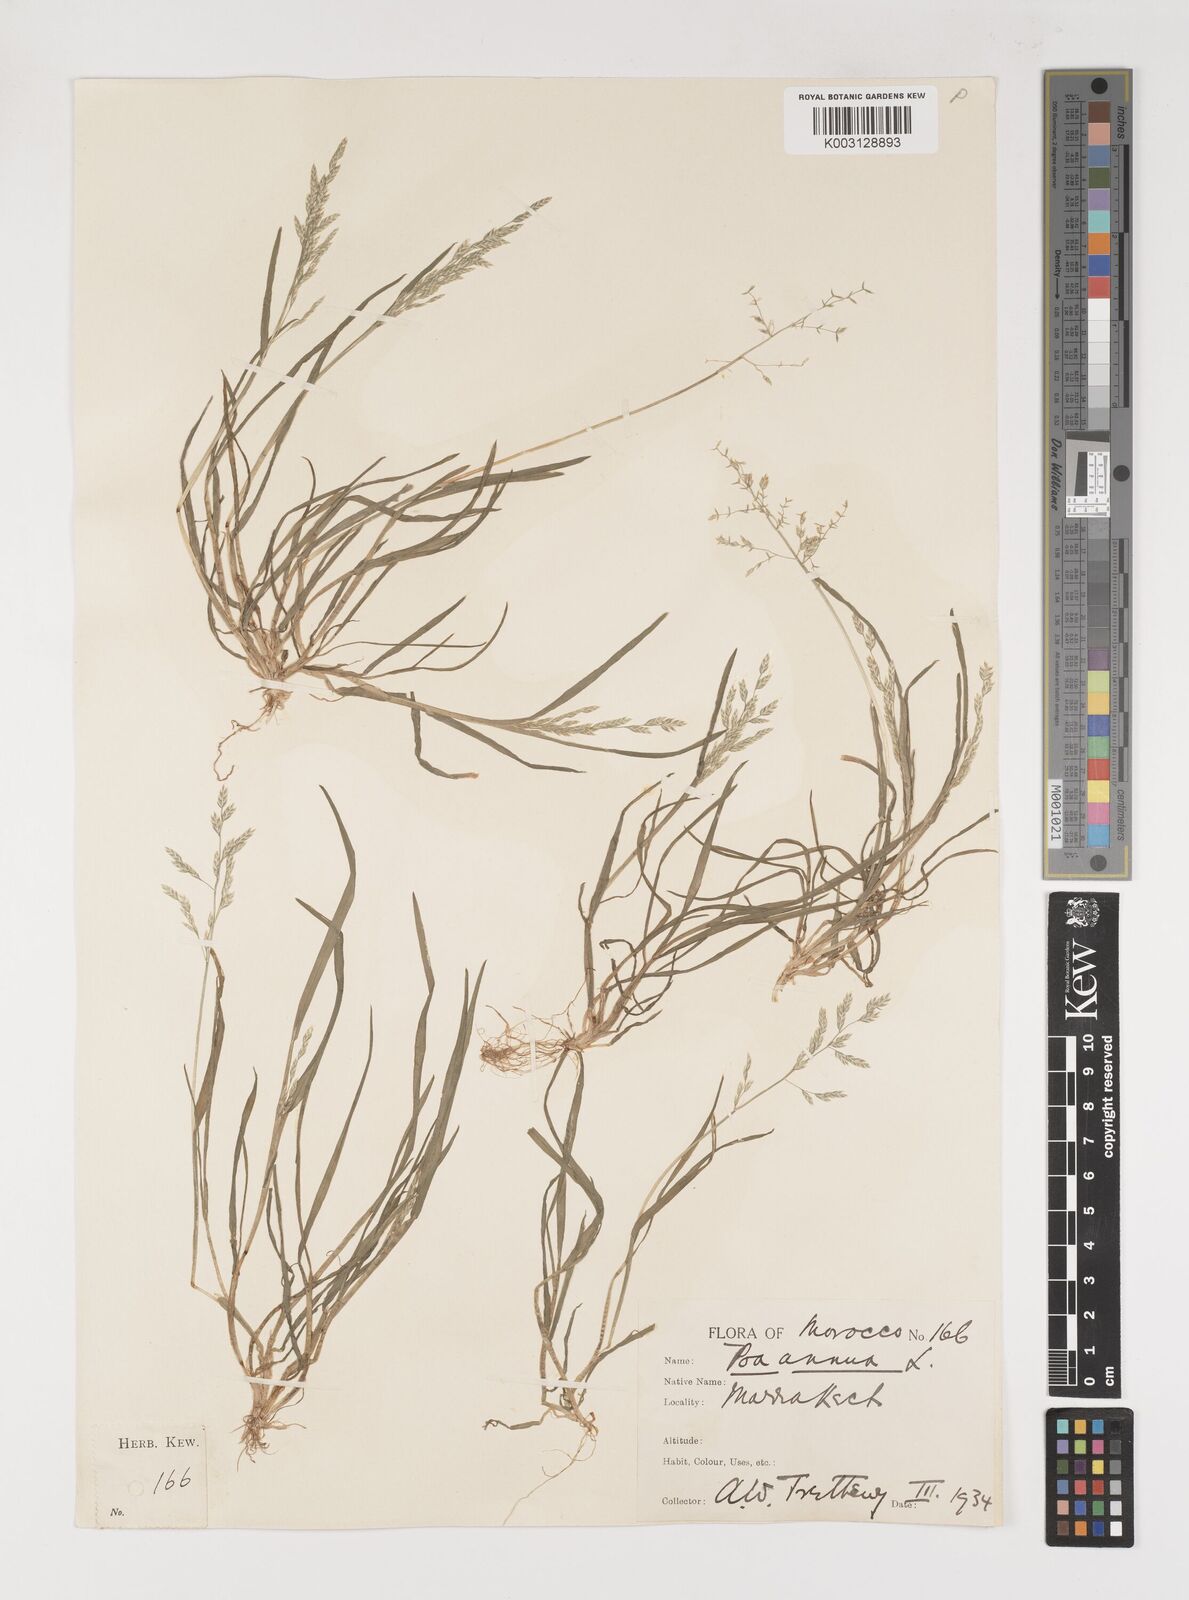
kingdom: Plantae
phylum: Tracheophyta
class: Liliopsida
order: Poales
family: Poaceae
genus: Poa
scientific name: Poa annua
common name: Annual bluegrass
